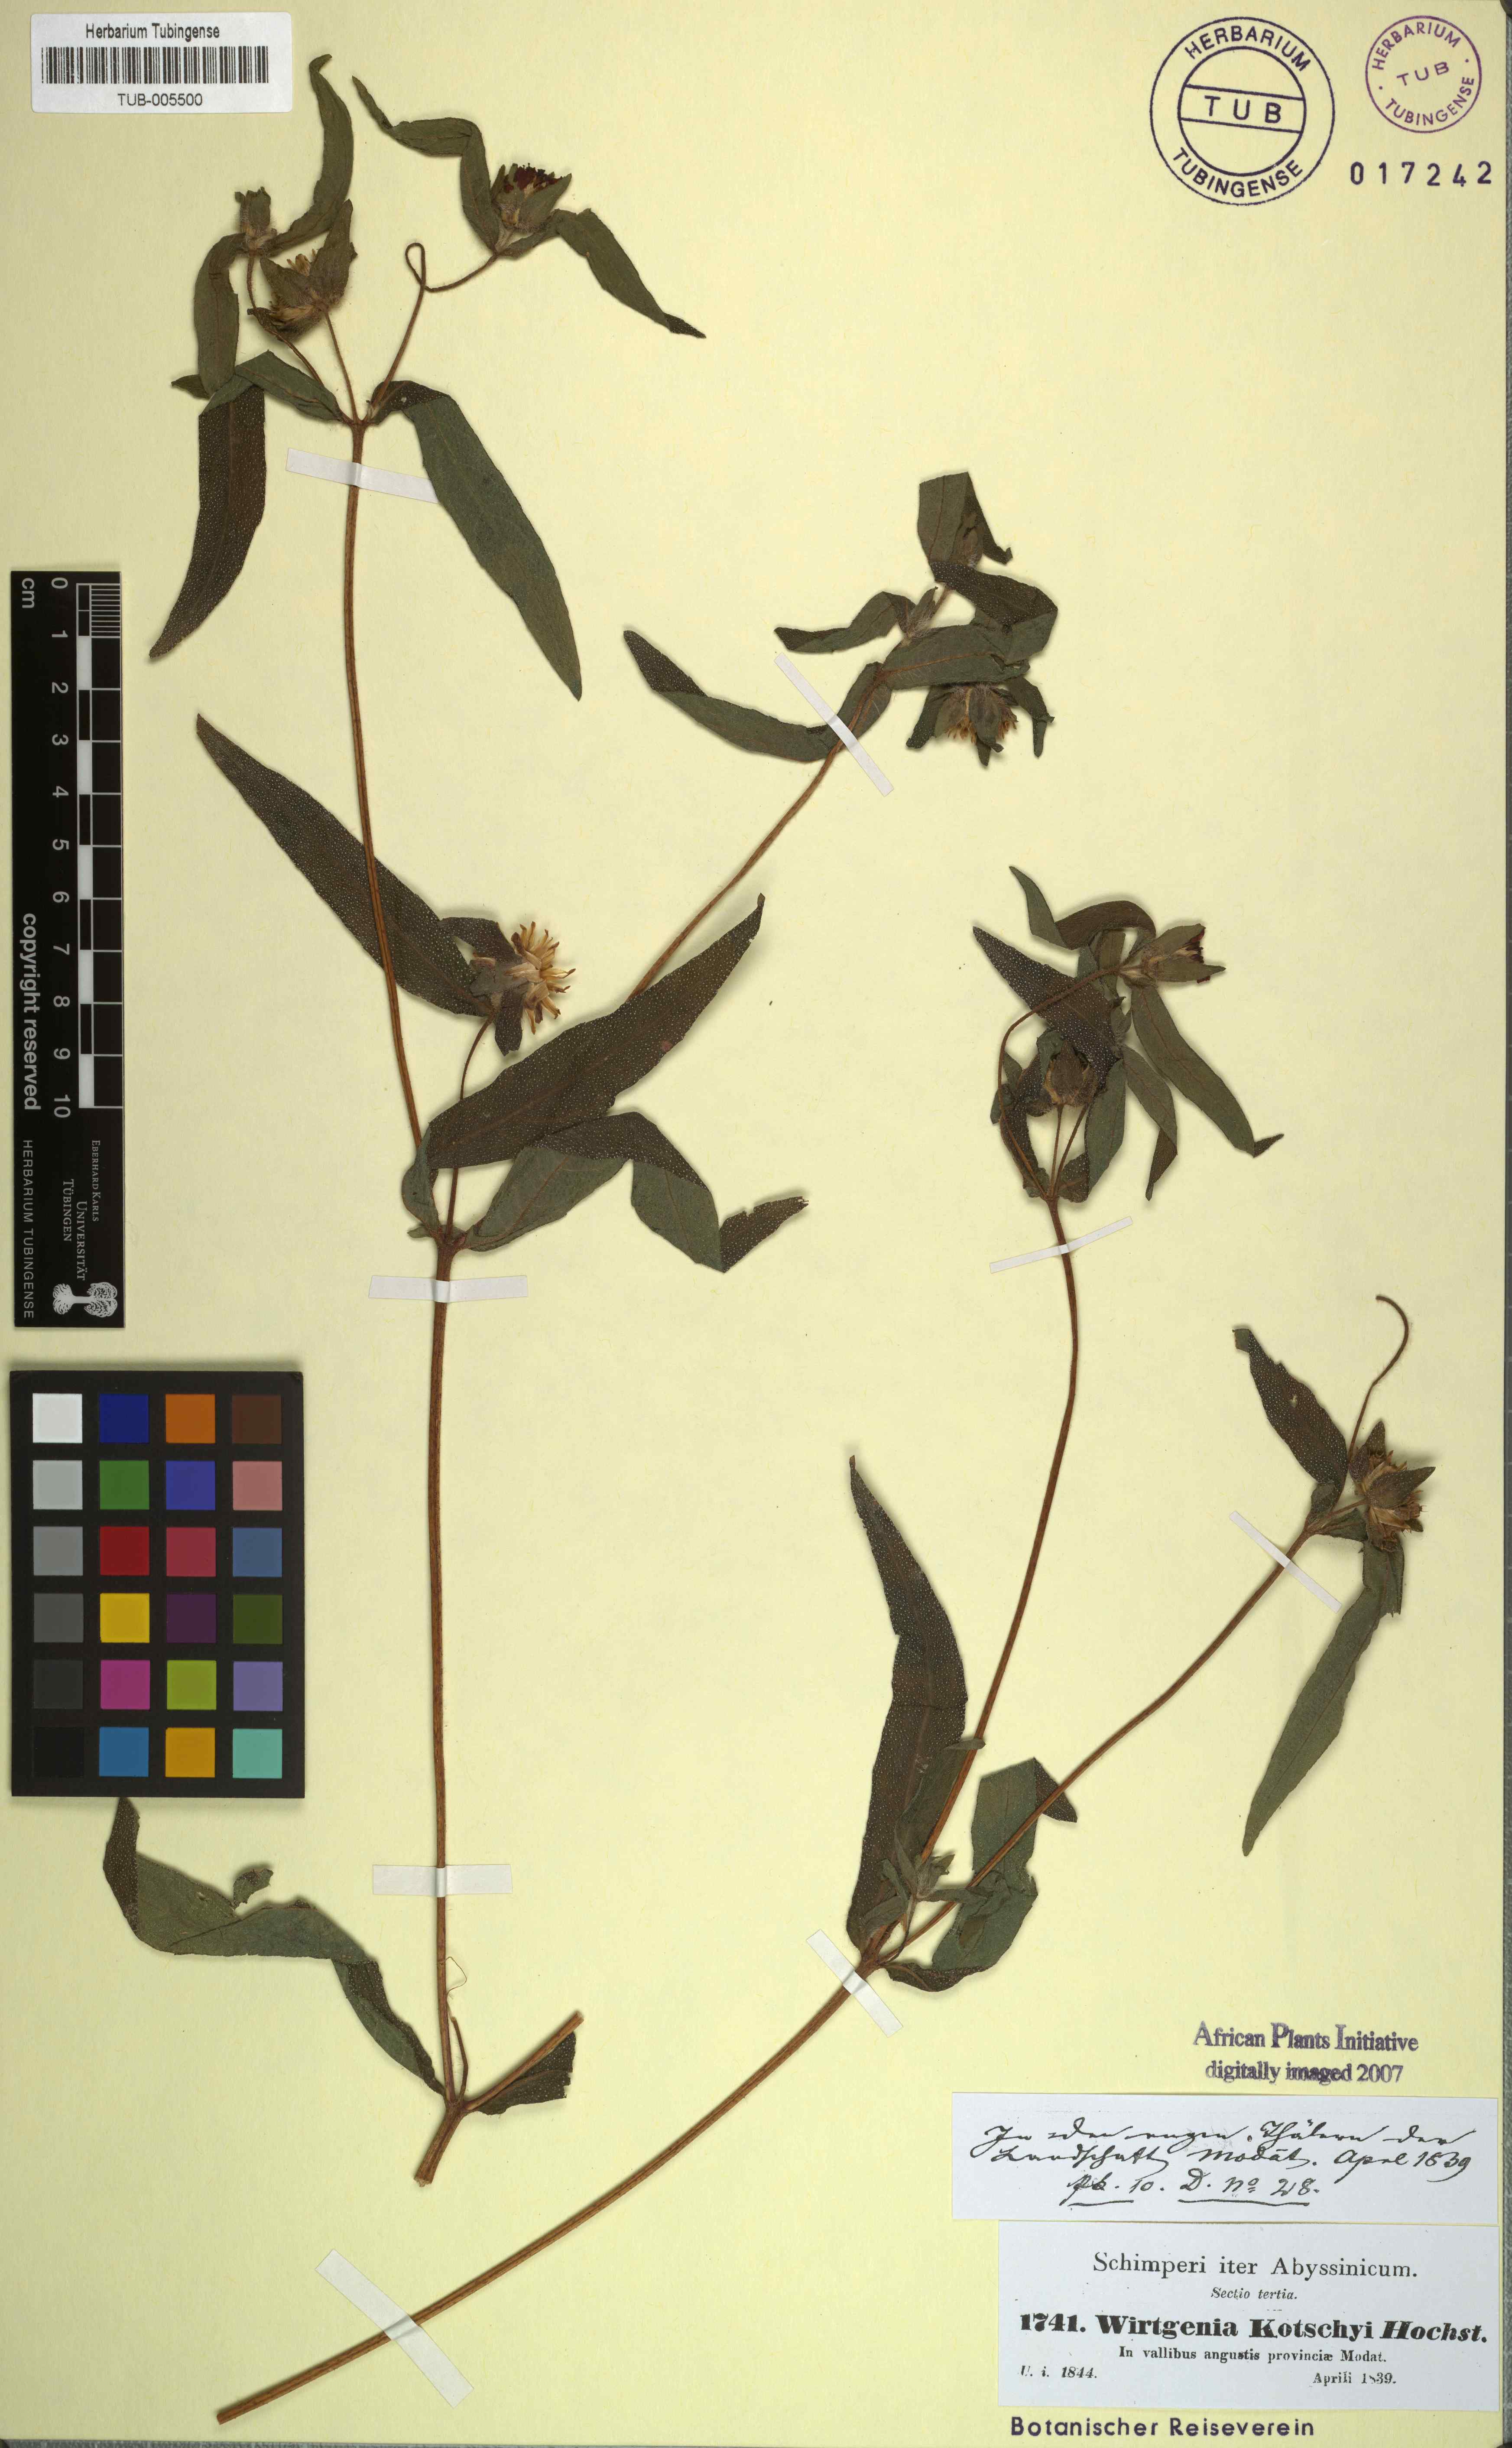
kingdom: Plantae
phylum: Tracheophyta
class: Magnoliopsida
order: Asterales
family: Asteraceae
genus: Aspilia
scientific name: Aspilia kotschyi
